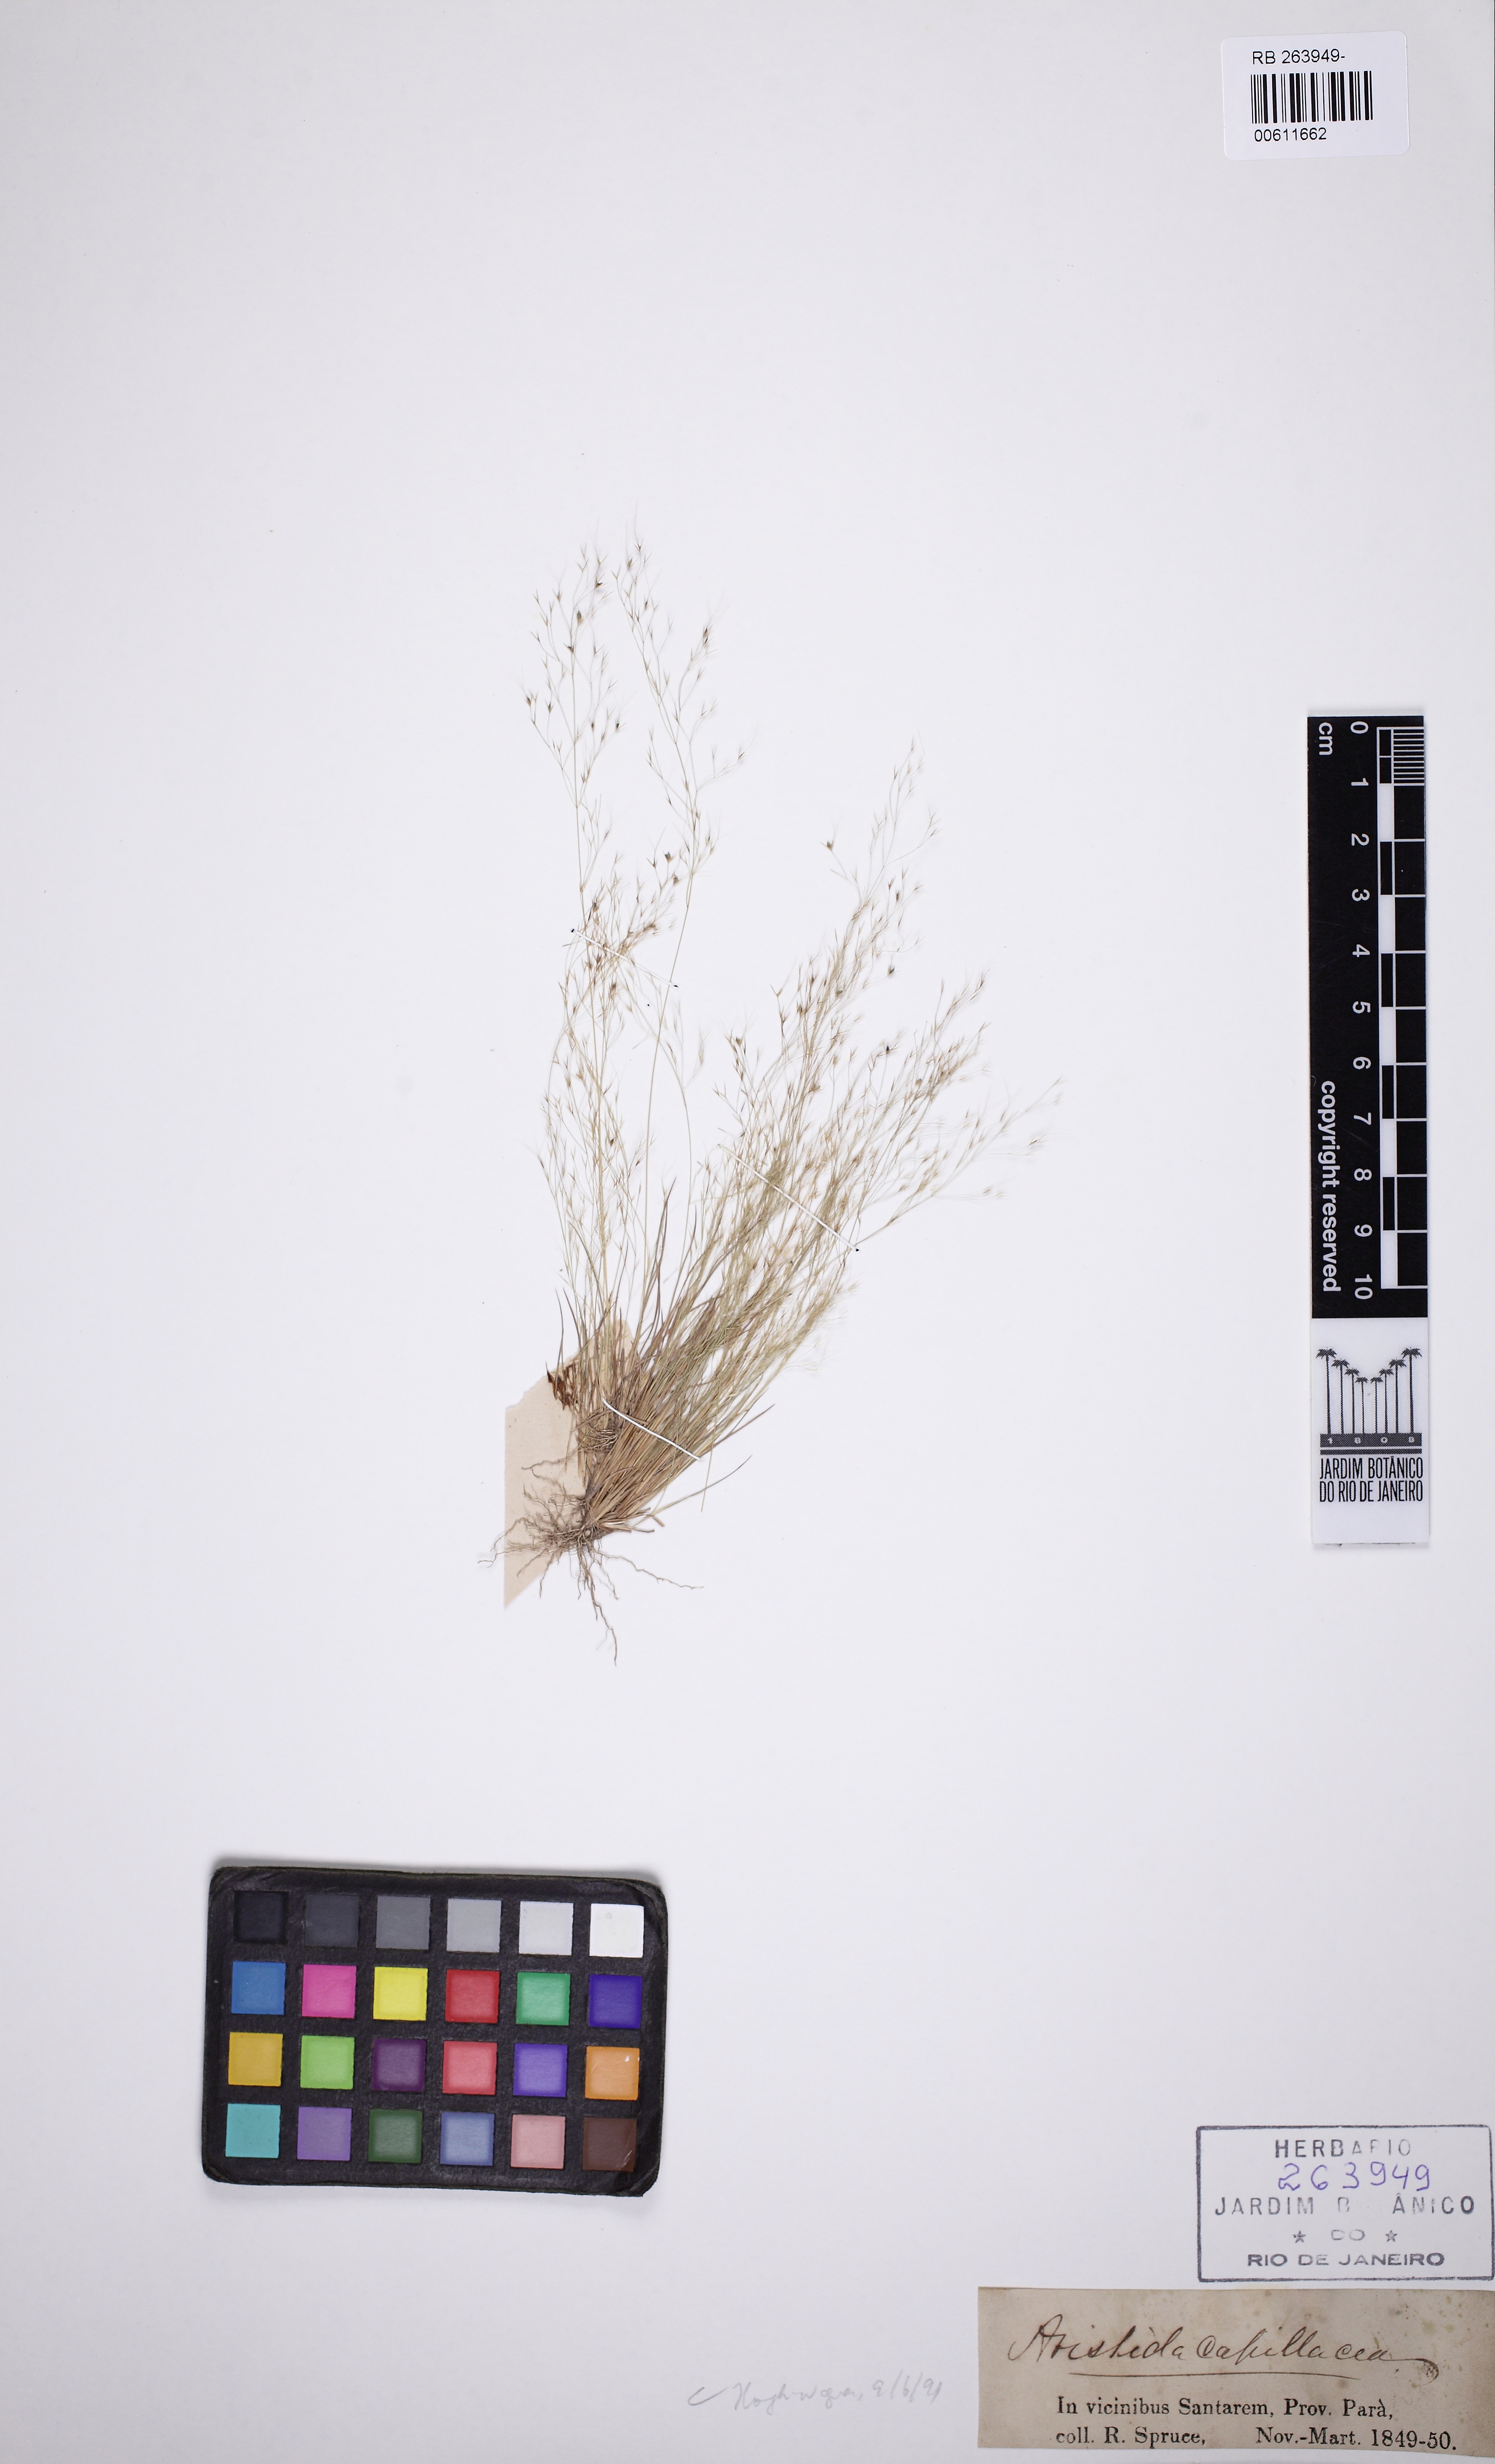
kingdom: Plantae
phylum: Tracheophyta
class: Liliopsida
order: Poales
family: Poaceae
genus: Aristida
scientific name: Aristida capillacea
